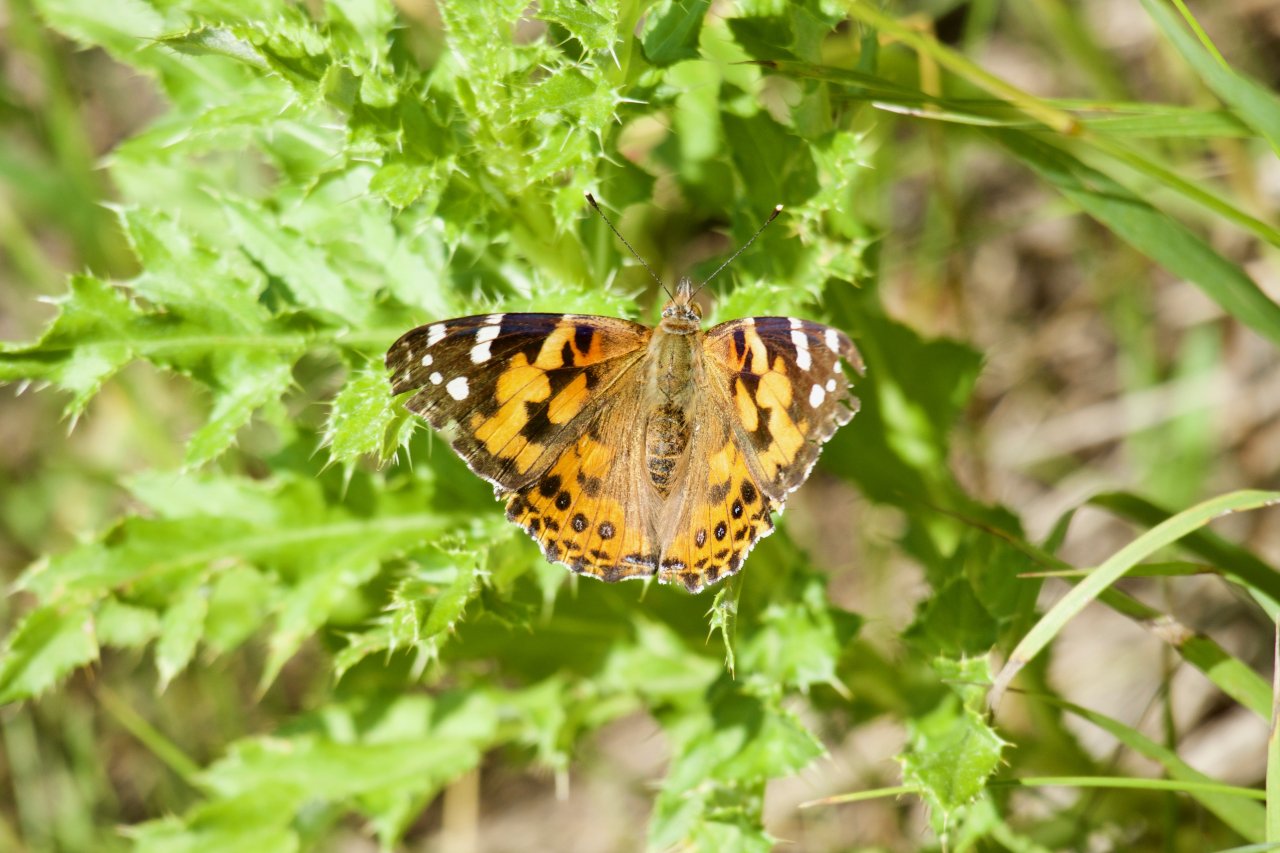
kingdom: Animalia
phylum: Arthropoda
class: Insecta
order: Lepidoptera
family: Nymphalidae
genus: Vanessa
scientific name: Vanessa cardui
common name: Painted Lady
